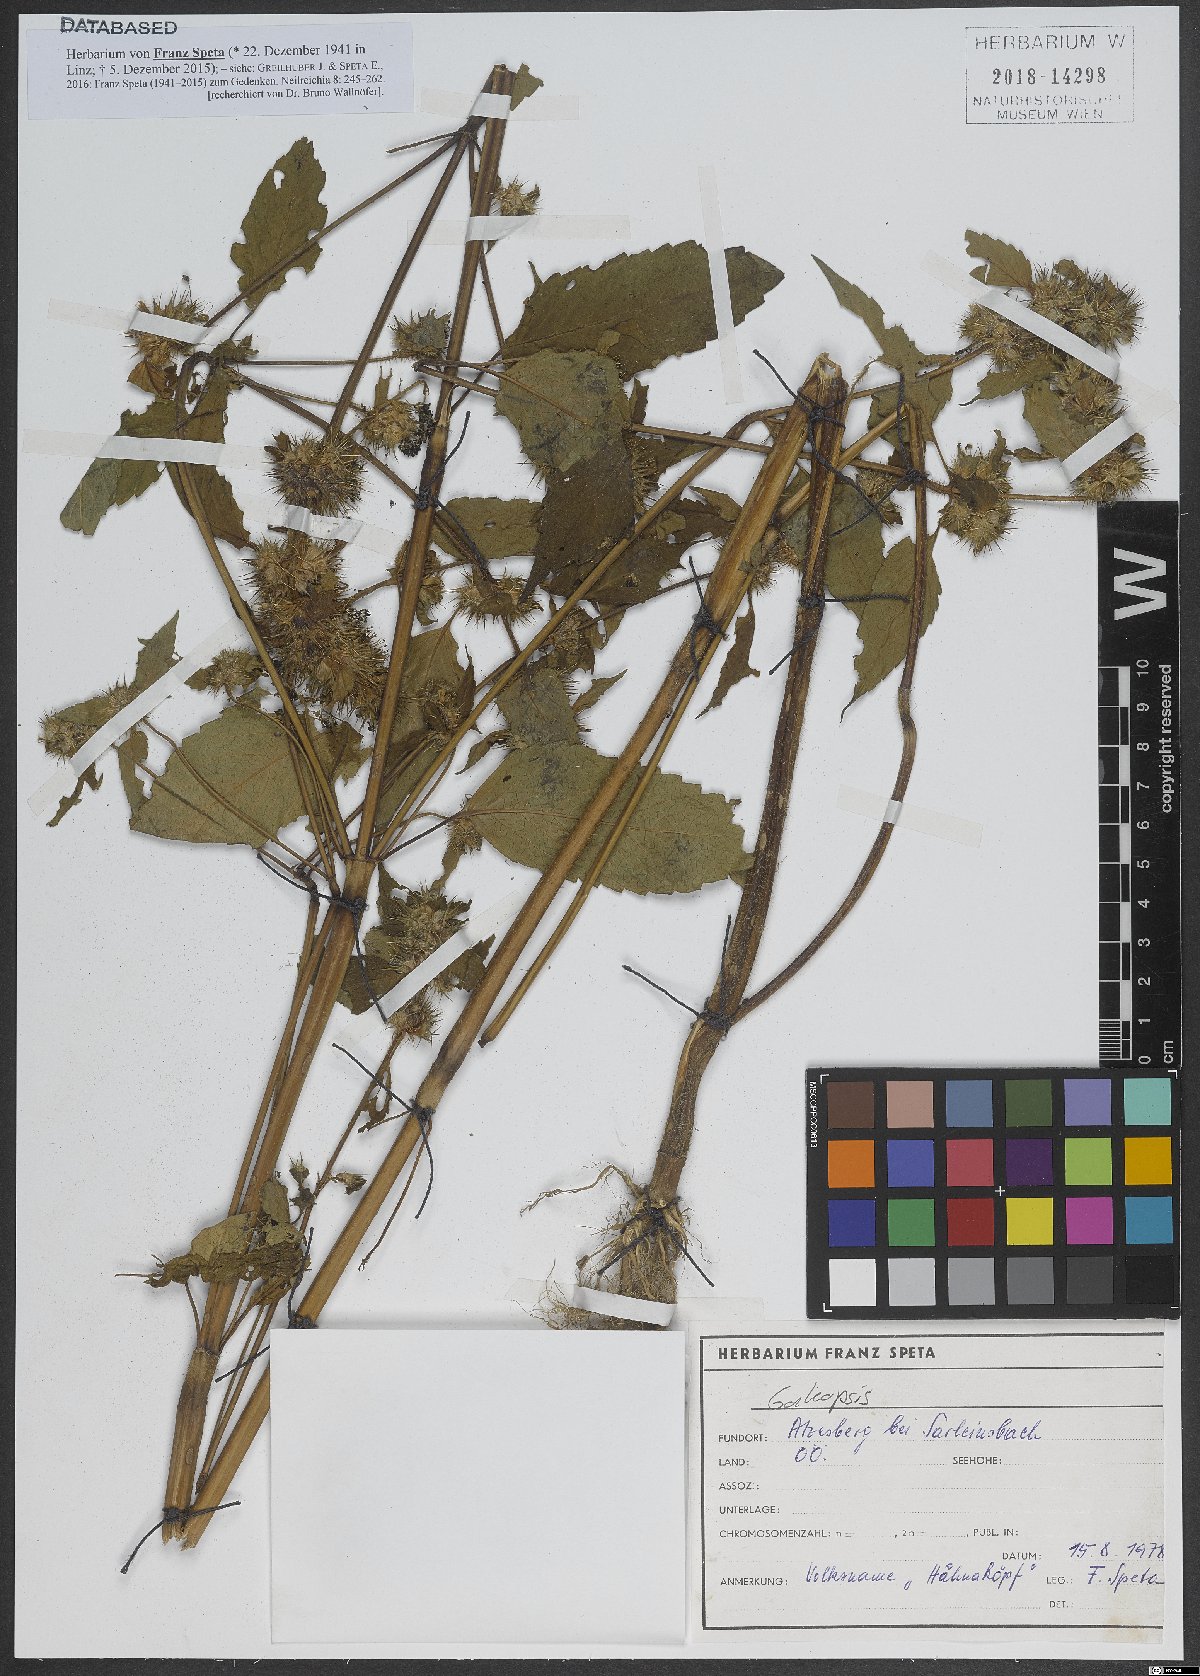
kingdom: Plantae
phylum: Tracheophyta
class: Magnoliopsida
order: Lamiales
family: Lamiaceae
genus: Galeopsis
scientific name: Galeopsis
